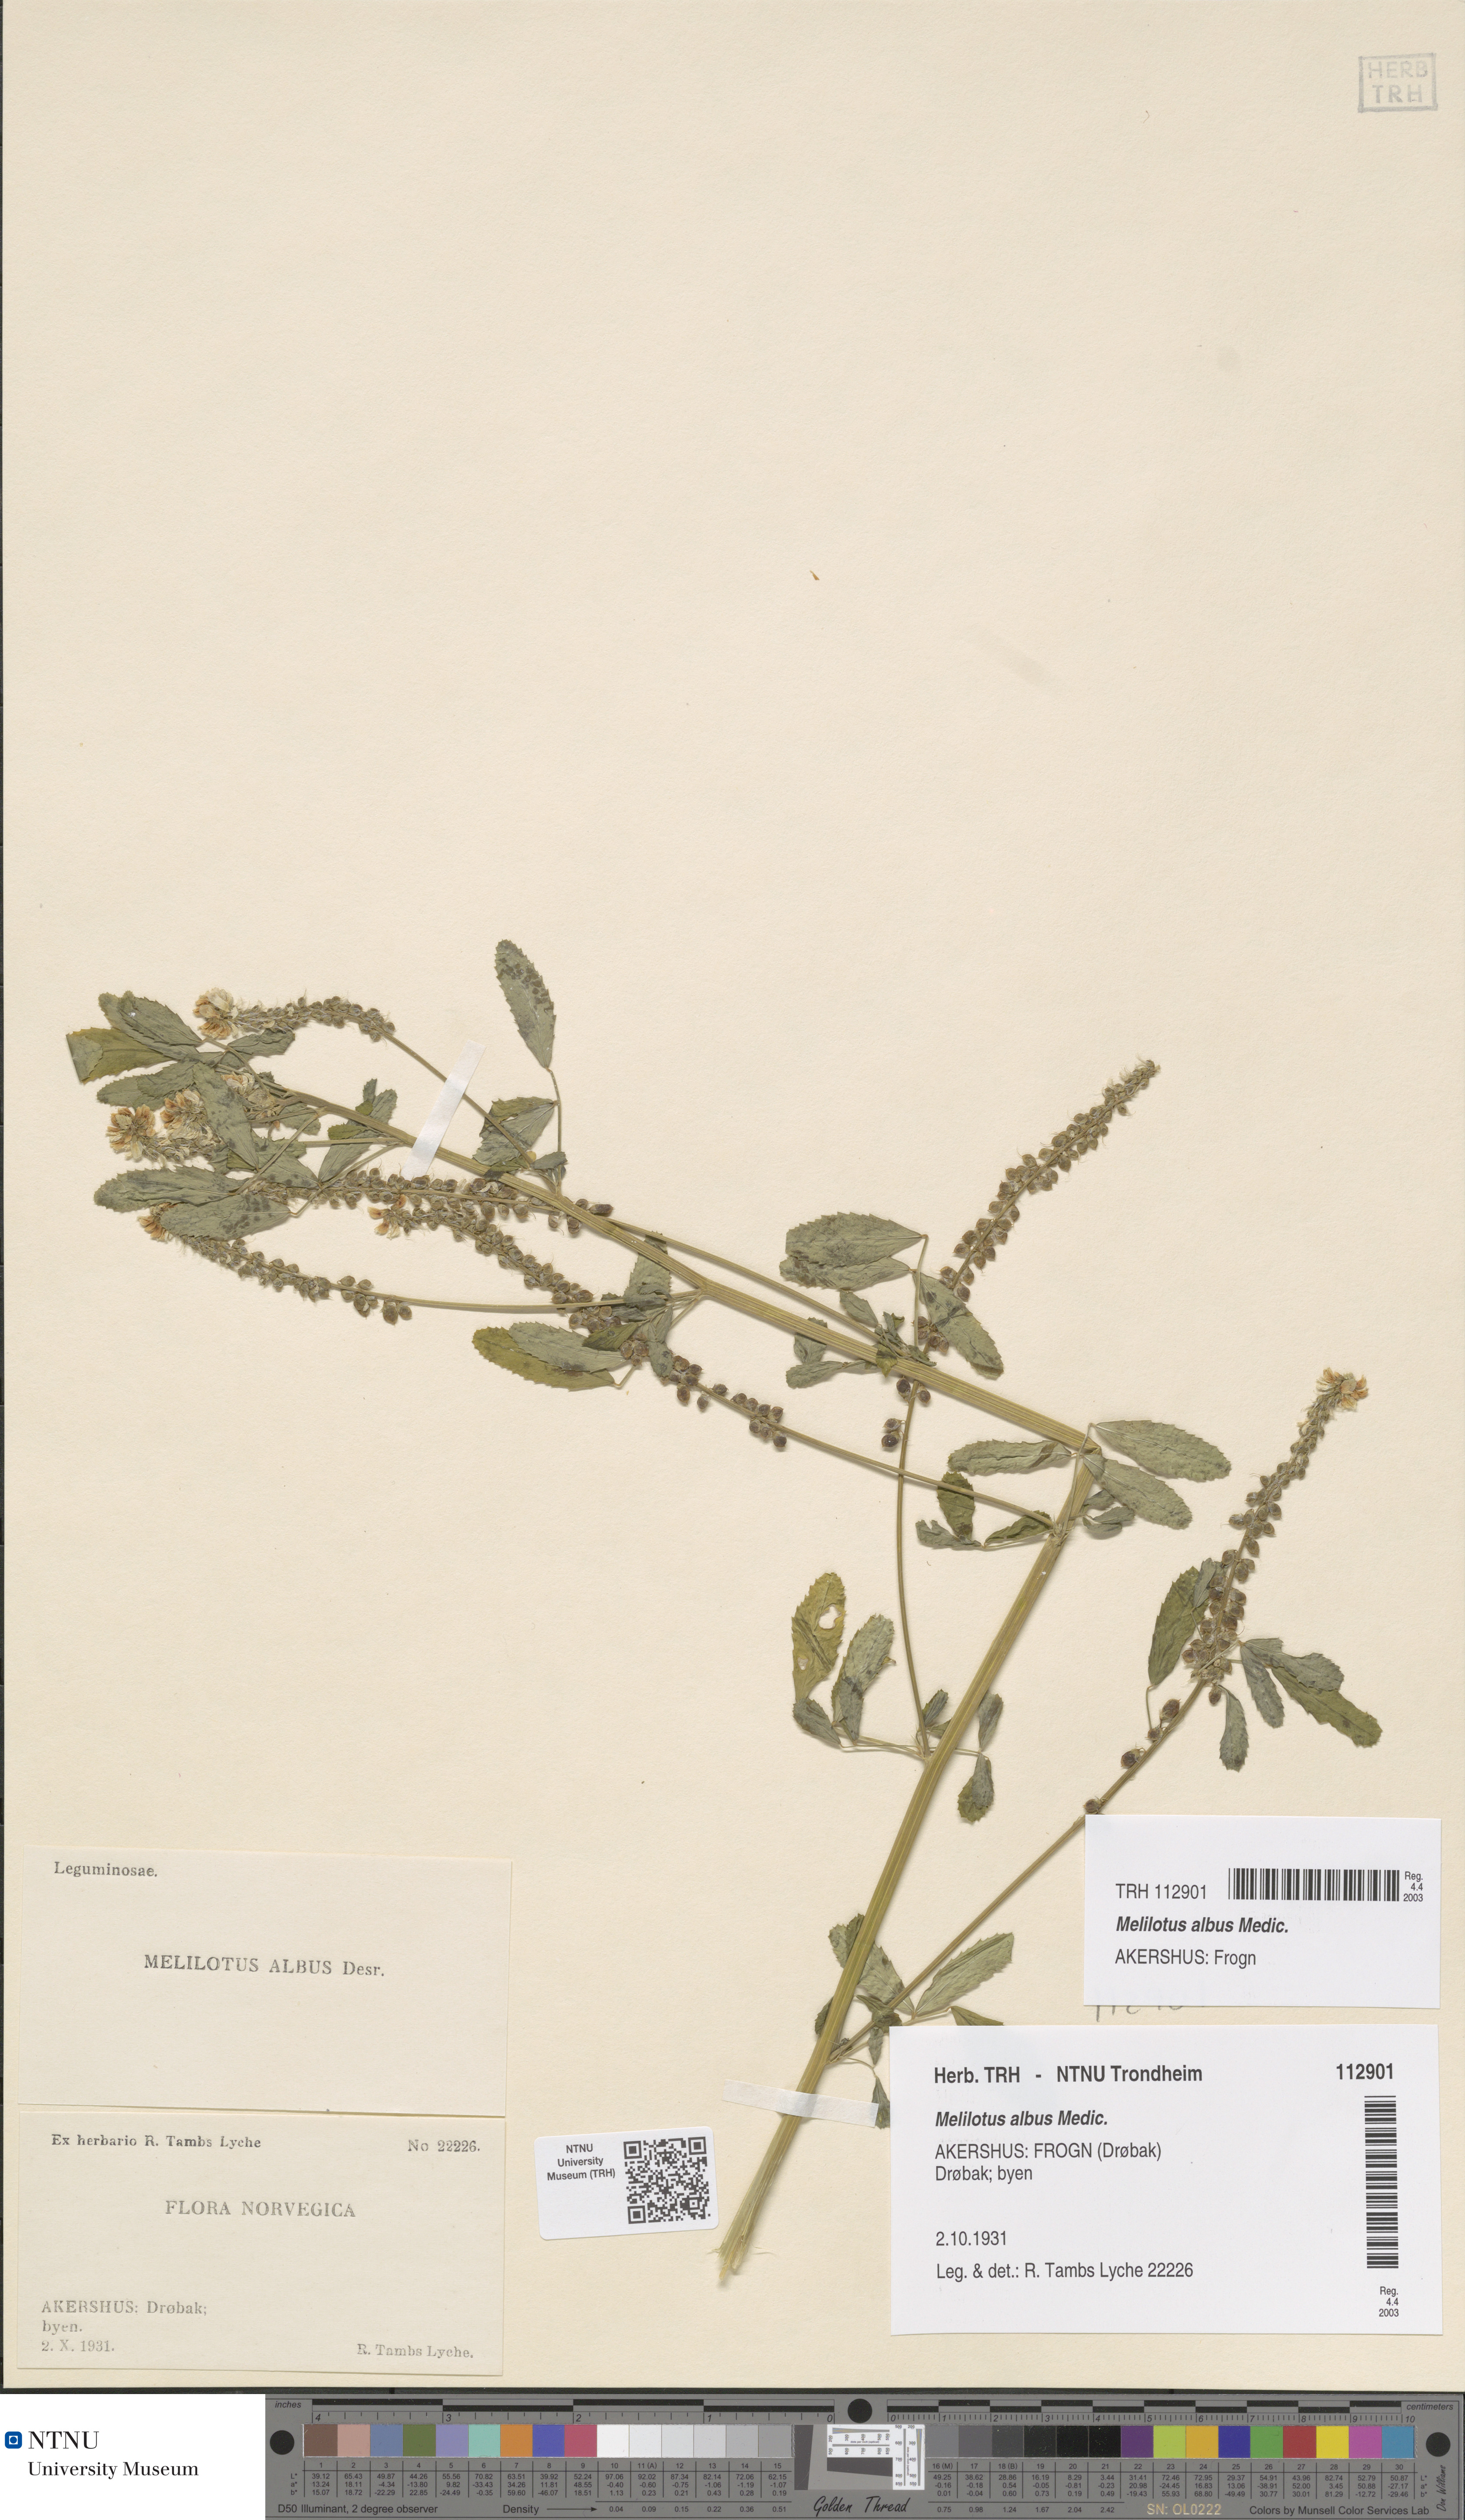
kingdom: Plantae
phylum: Tracheophyta
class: Magnoliopsida
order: Fabales
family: Fabaceae
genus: Melilotus
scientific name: Melilotus albus
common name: White melilot
